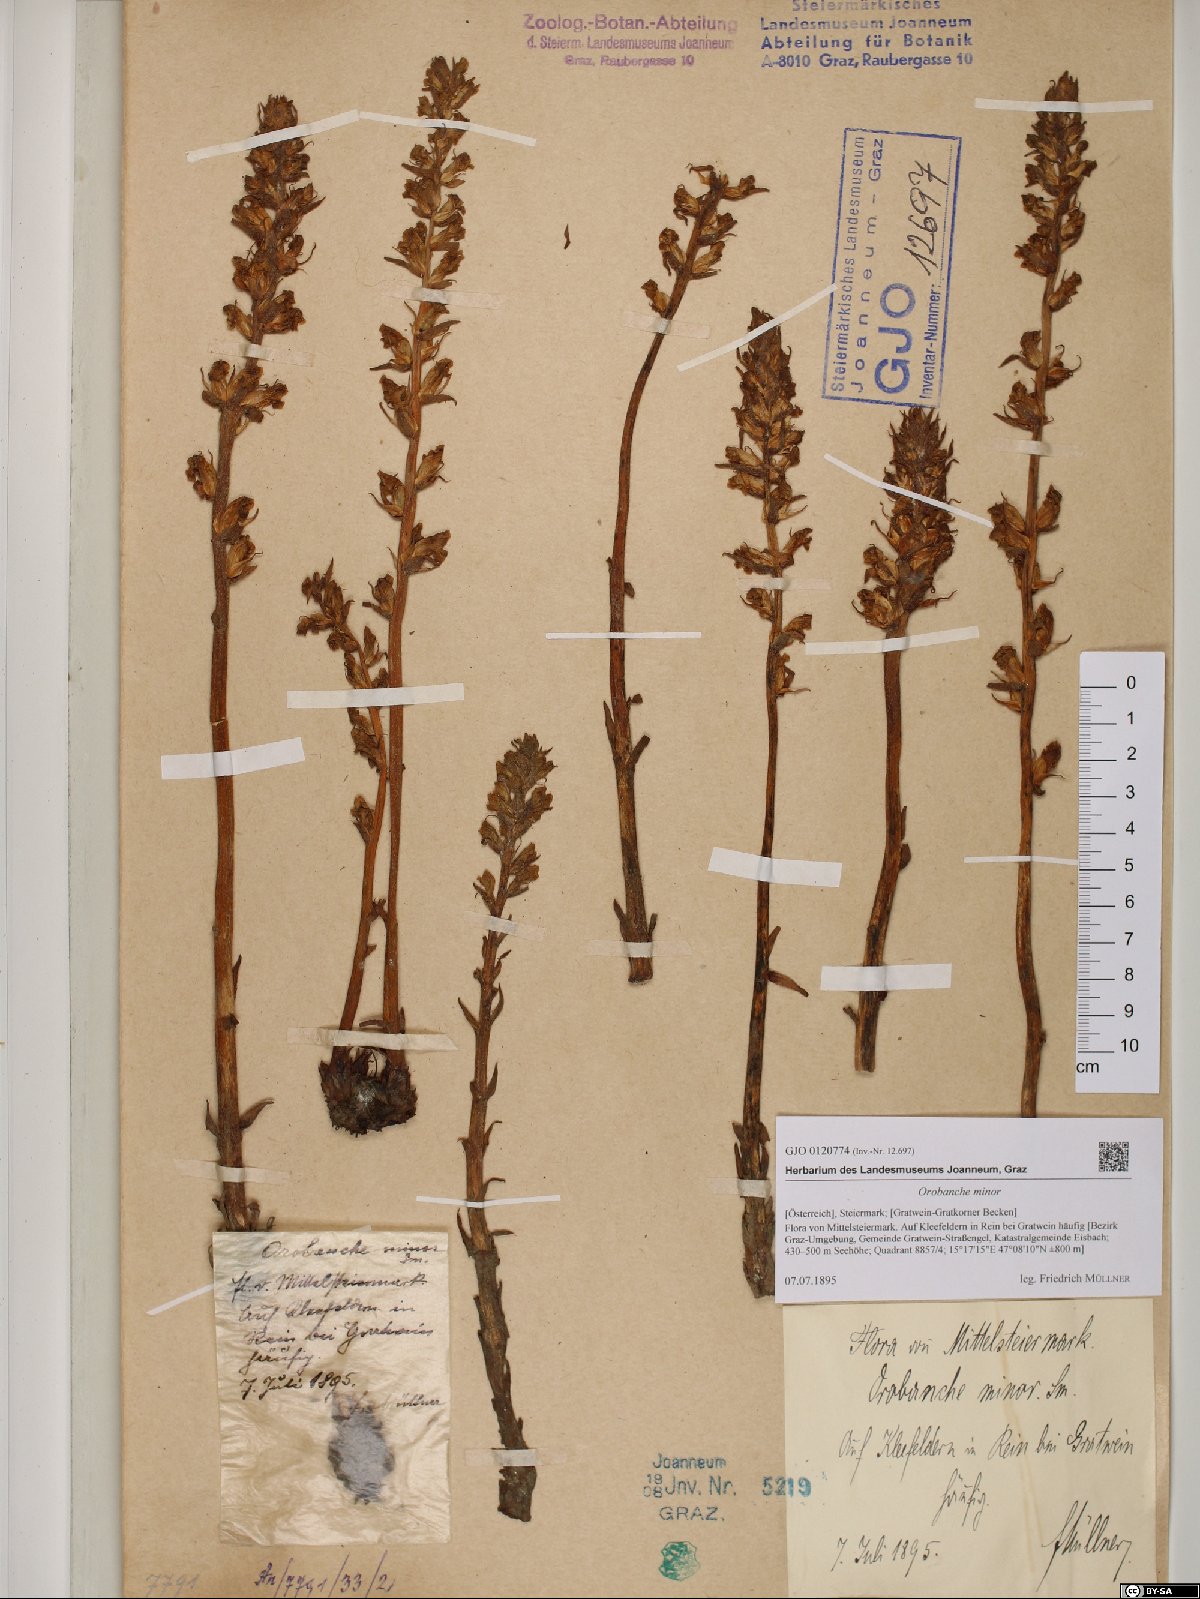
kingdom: Plantae
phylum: Tracheophyta
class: Magnoliopsida
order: Lamiales
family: Orobanchaceae
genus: Orobanche
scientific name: Orobanche minor
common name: Common broomrape
